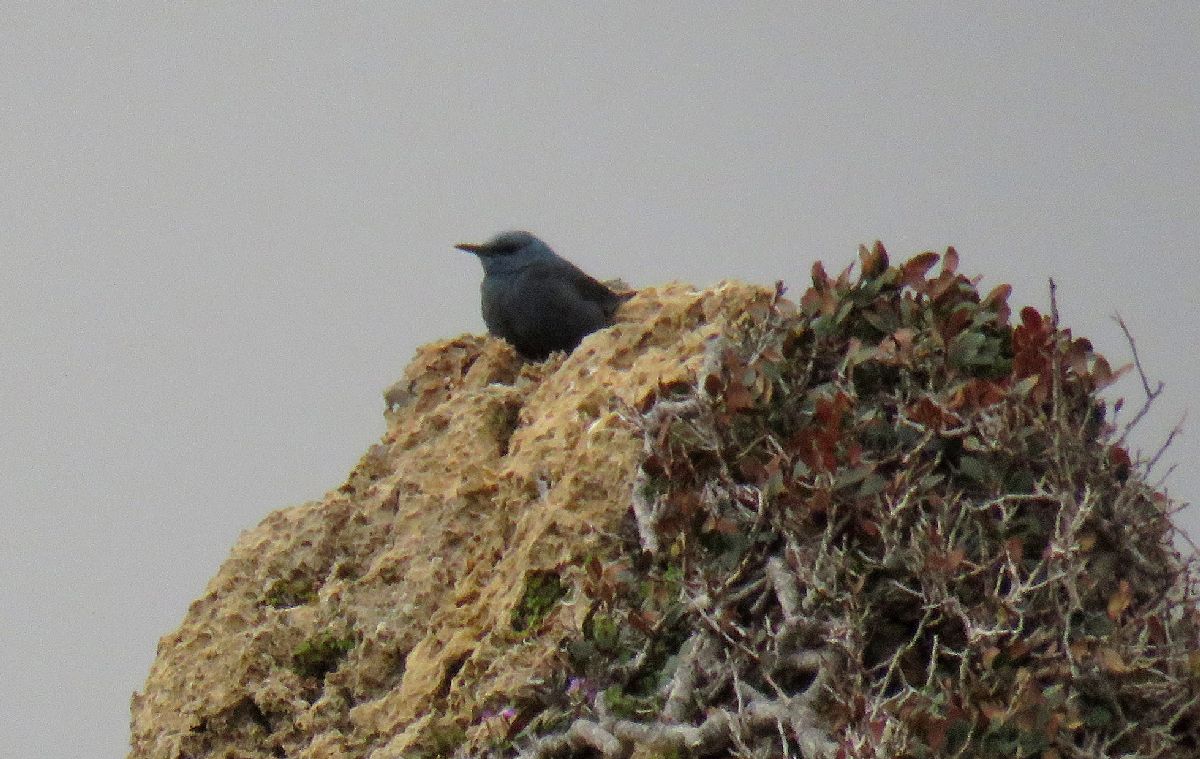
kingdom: Animalia
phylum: Chordata
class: Aves
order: Passeriformes
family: Muscicapidae
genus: Monticola
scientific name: Monticola solitarius
